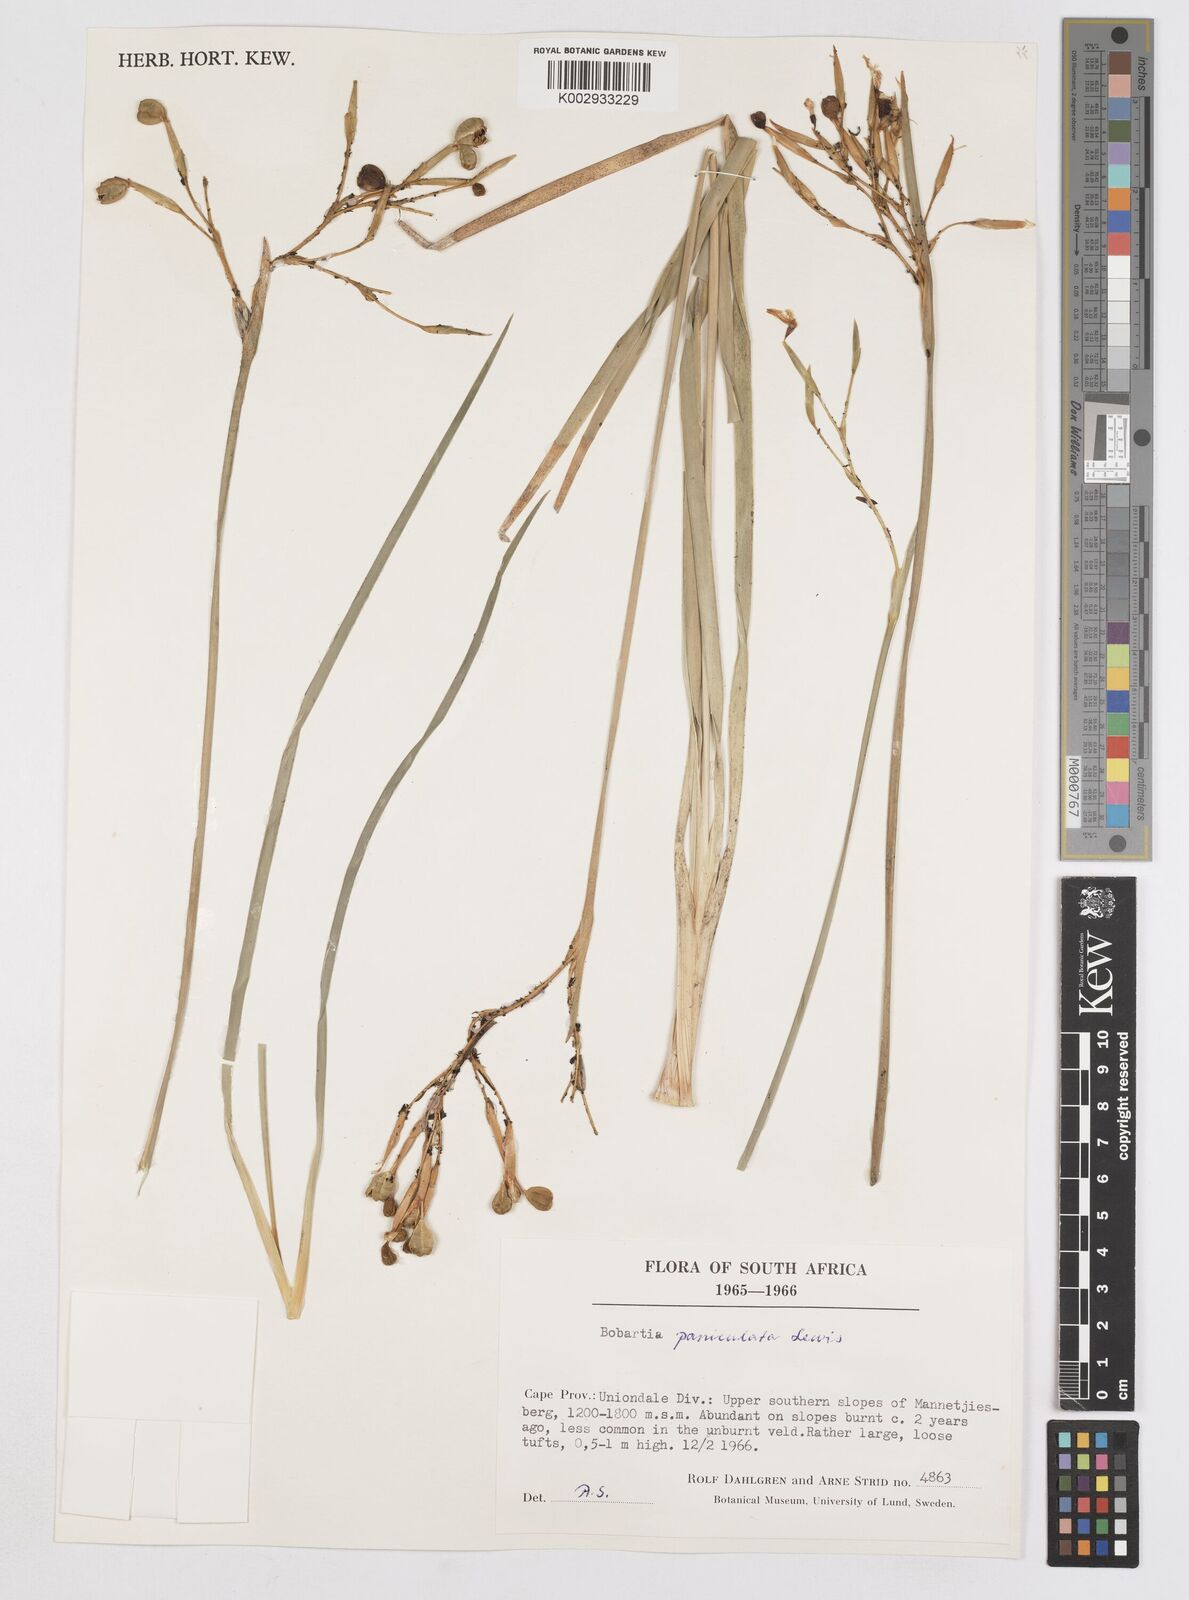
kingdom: Plantae
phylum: Tracheophyta
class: Liliopsida
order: Asparagales
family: Iridaceae
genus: Bobartia
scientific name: Bobartia paniculata
